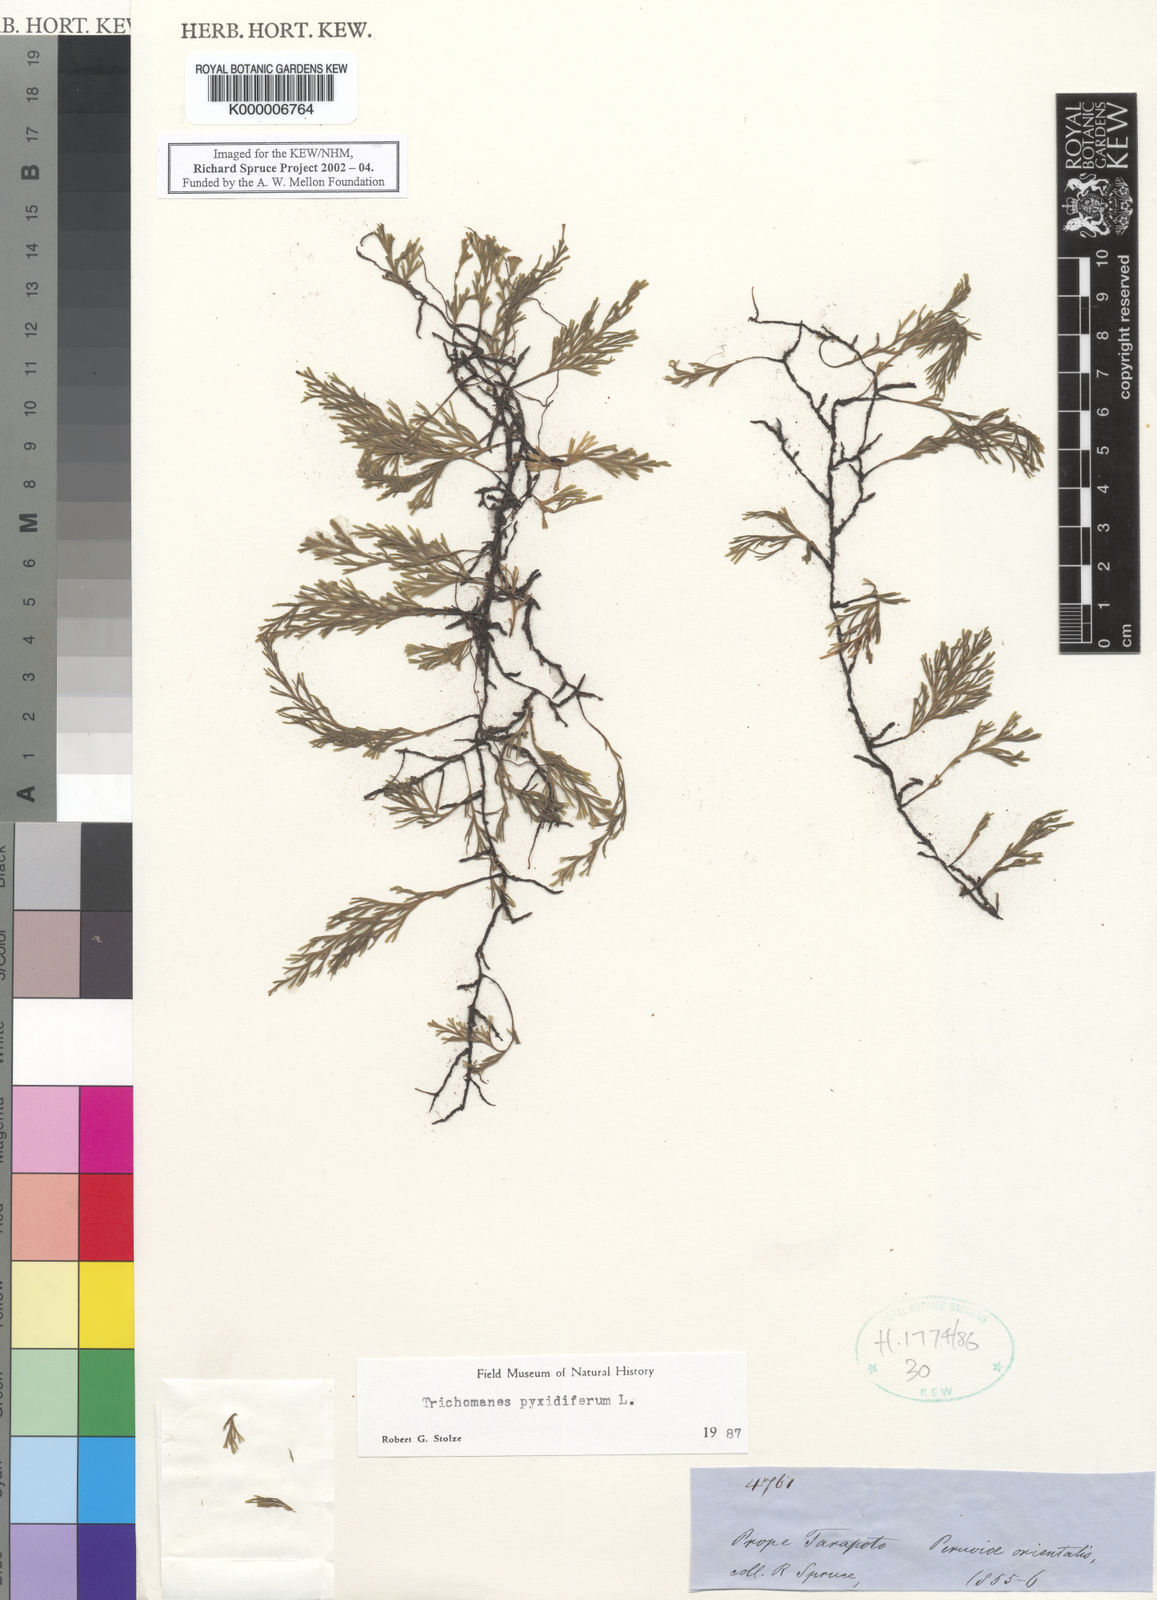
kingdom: Plantae
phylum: Tracheophyta
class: Polypodiopsida
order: Hymenophyllales
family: Hymenophyllaceae
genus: Polyphlebium
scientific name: Polyphlebium pyxidiferum
